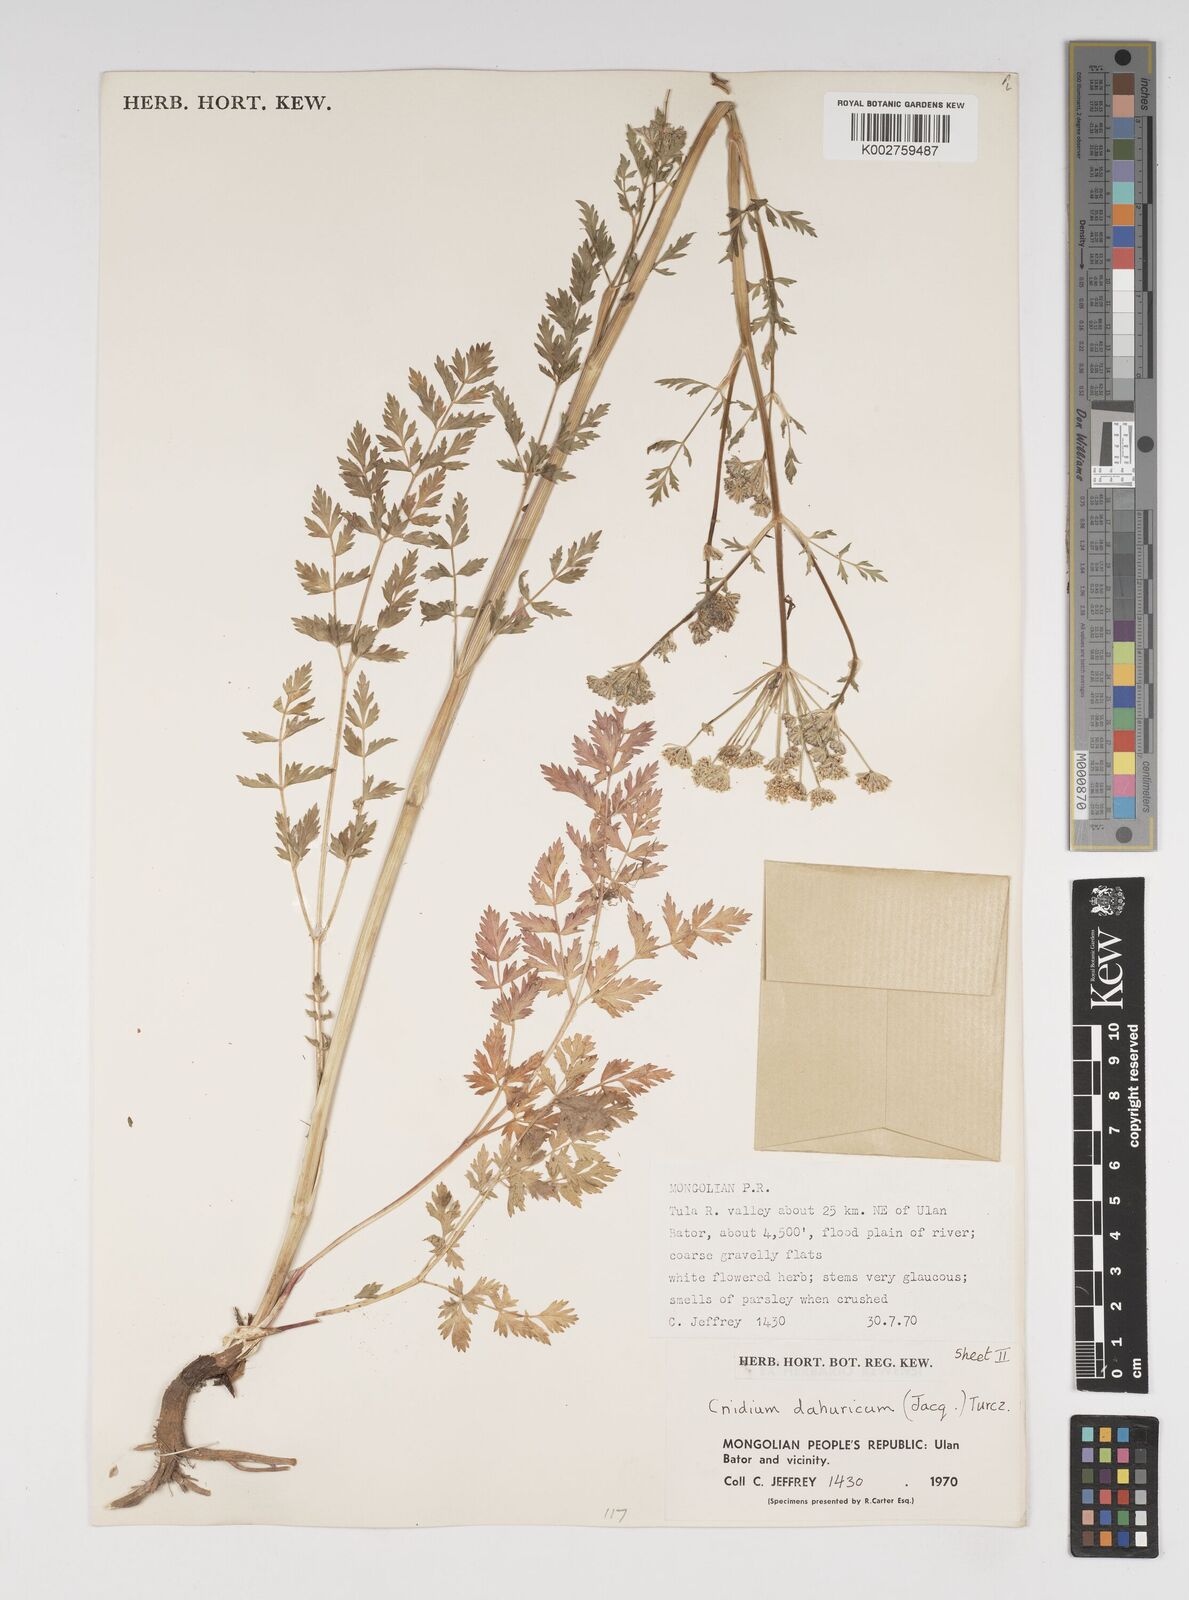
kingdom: Plantae
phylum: Tracheophyta
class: Magnoliopsida
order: Apiales
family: Apiaceae
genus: Cnidium
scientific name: Cnidium dauricum
